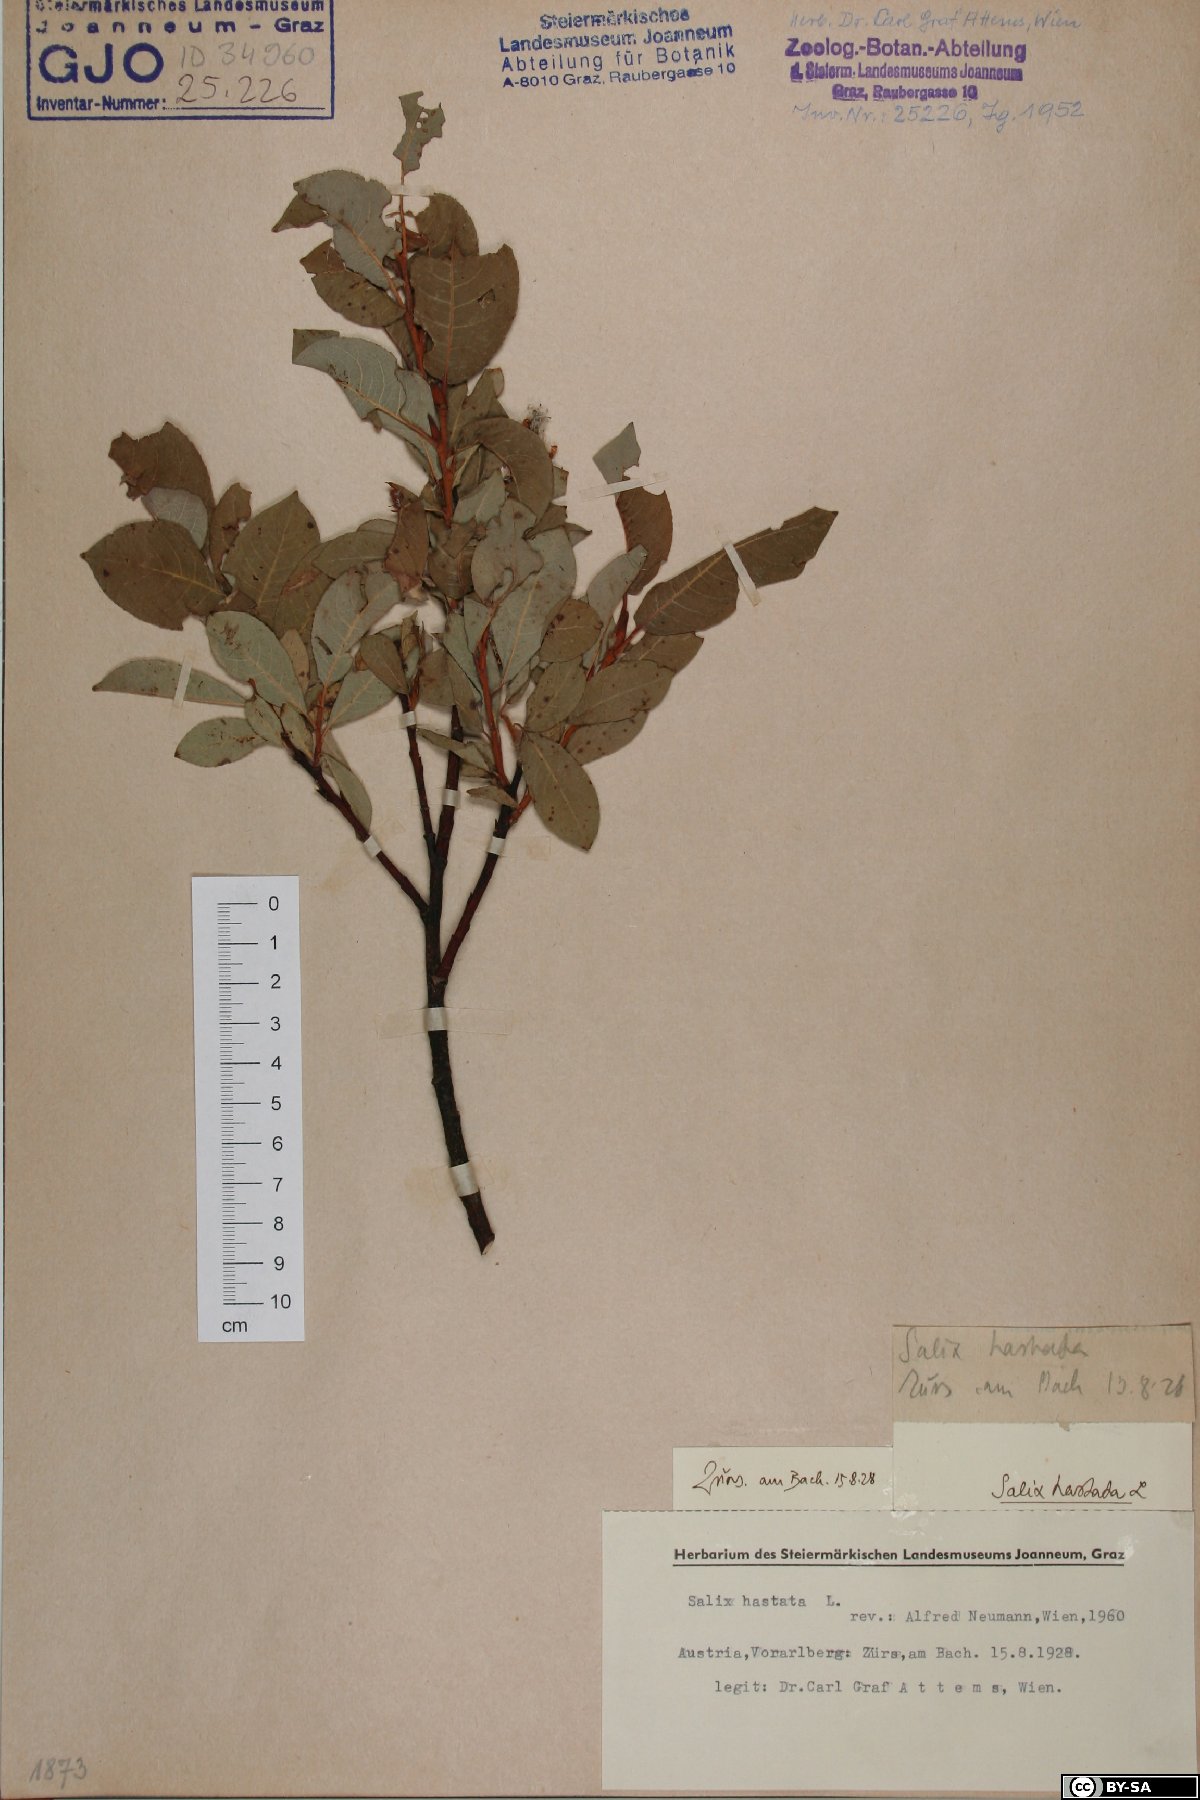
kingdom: Plantae
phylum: Tracheophyta
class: Magnoliopsida
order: Malpighiales
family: Salicaceae
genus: Salix
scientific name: Salix hastata
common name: Halberd willow
